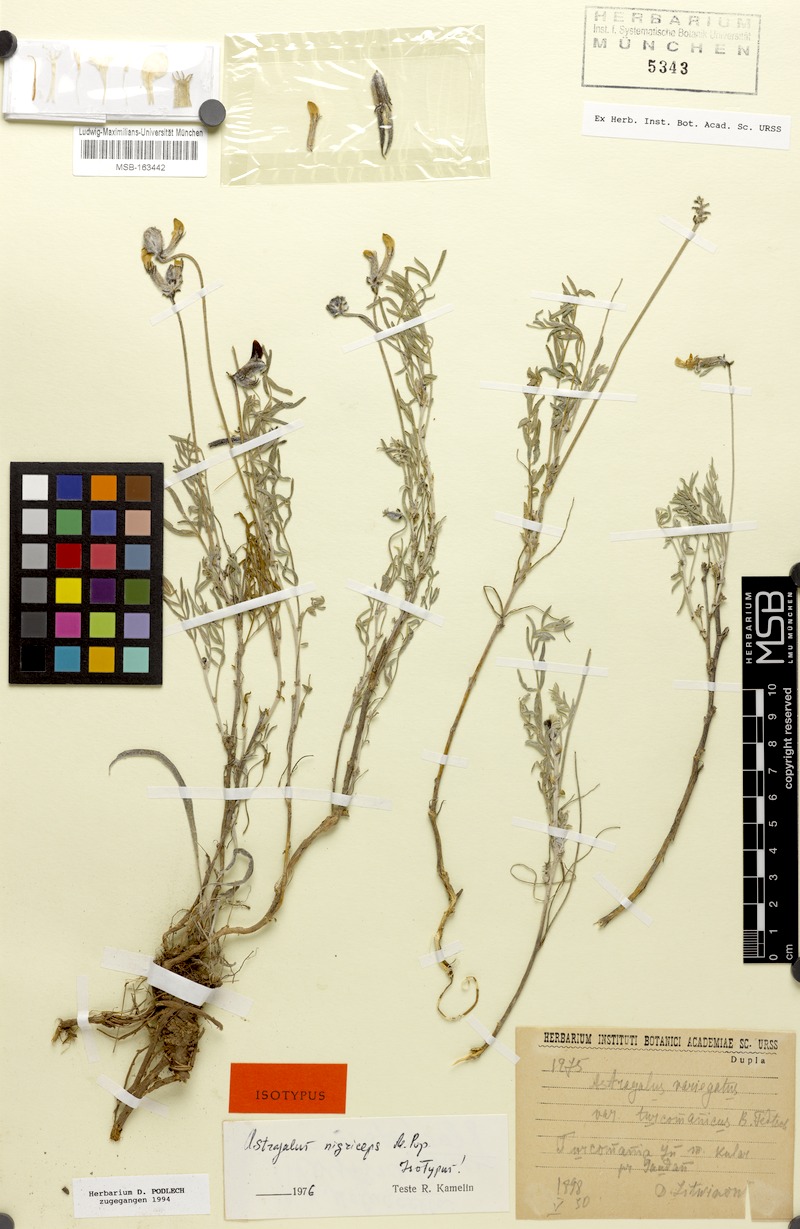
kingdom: Plantae
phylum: Tracheophyta
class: Magnoliopsida
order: Fabales
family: Fabaceae
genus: Astragalus
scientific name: Astragalus nigriceps
